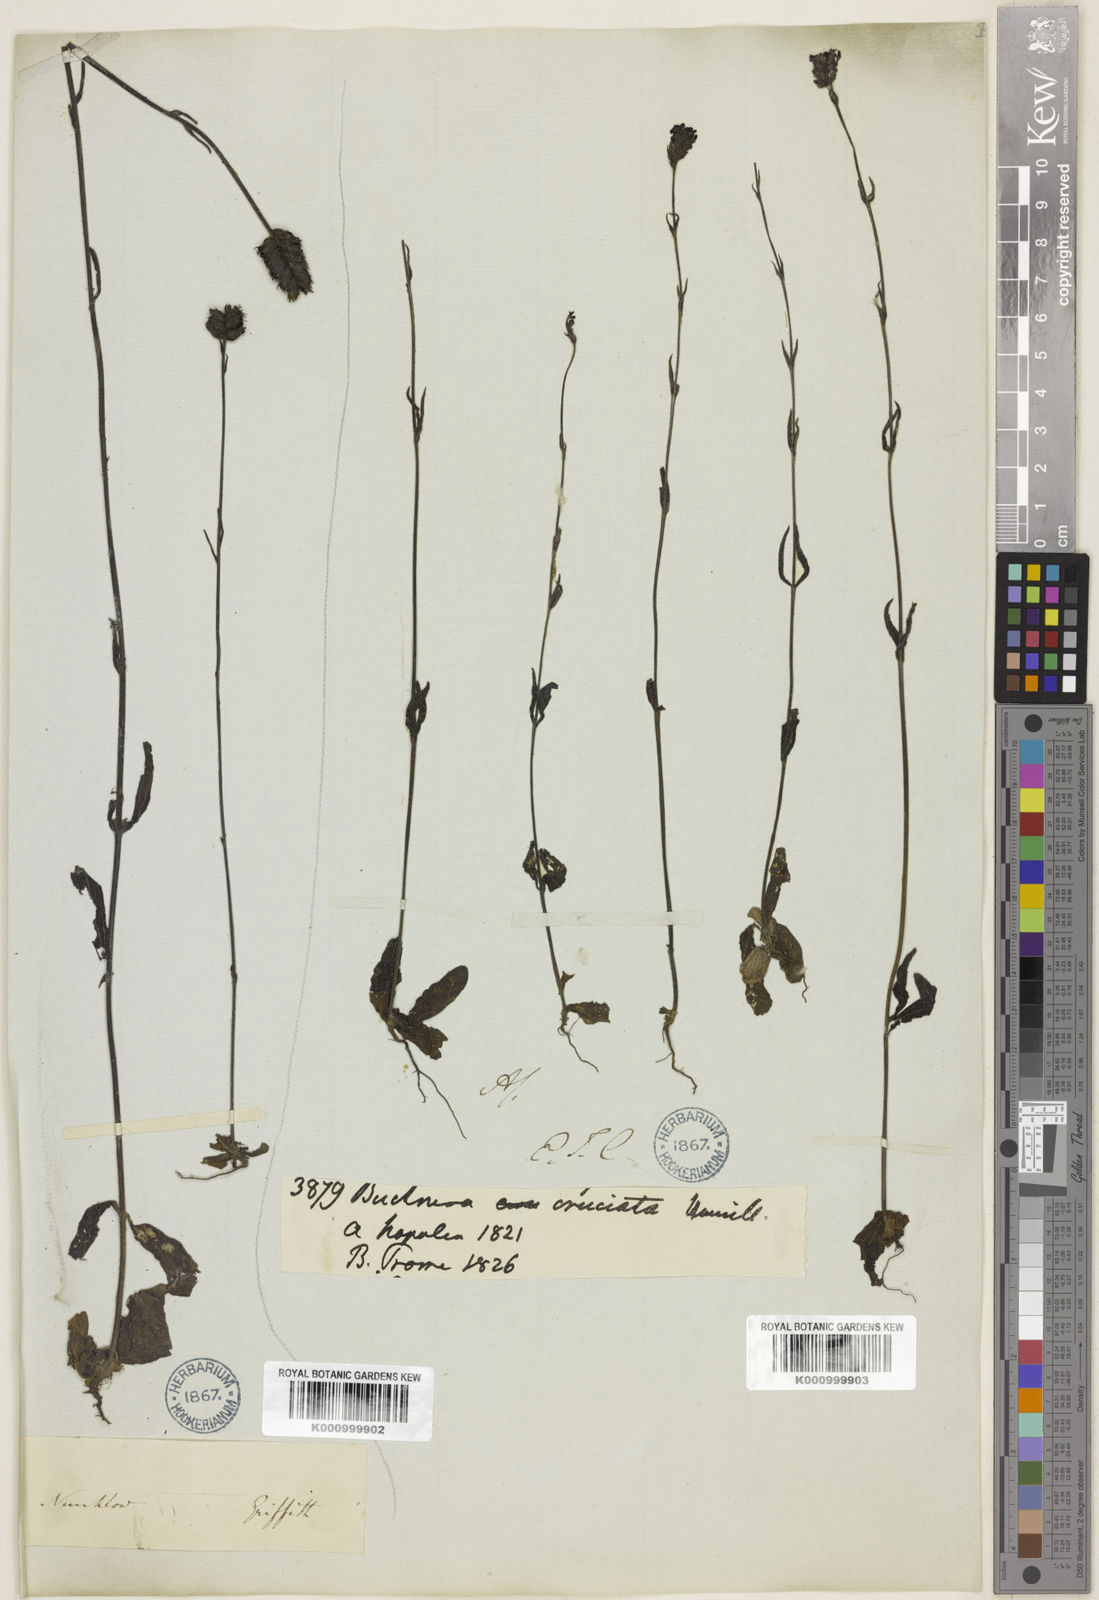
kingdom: Plantae
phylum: Tracheophyta
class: Magnoliopsida
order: Lamiales
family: Orobanchaceae
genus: Buchnera
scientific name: Buchnera cruciata
